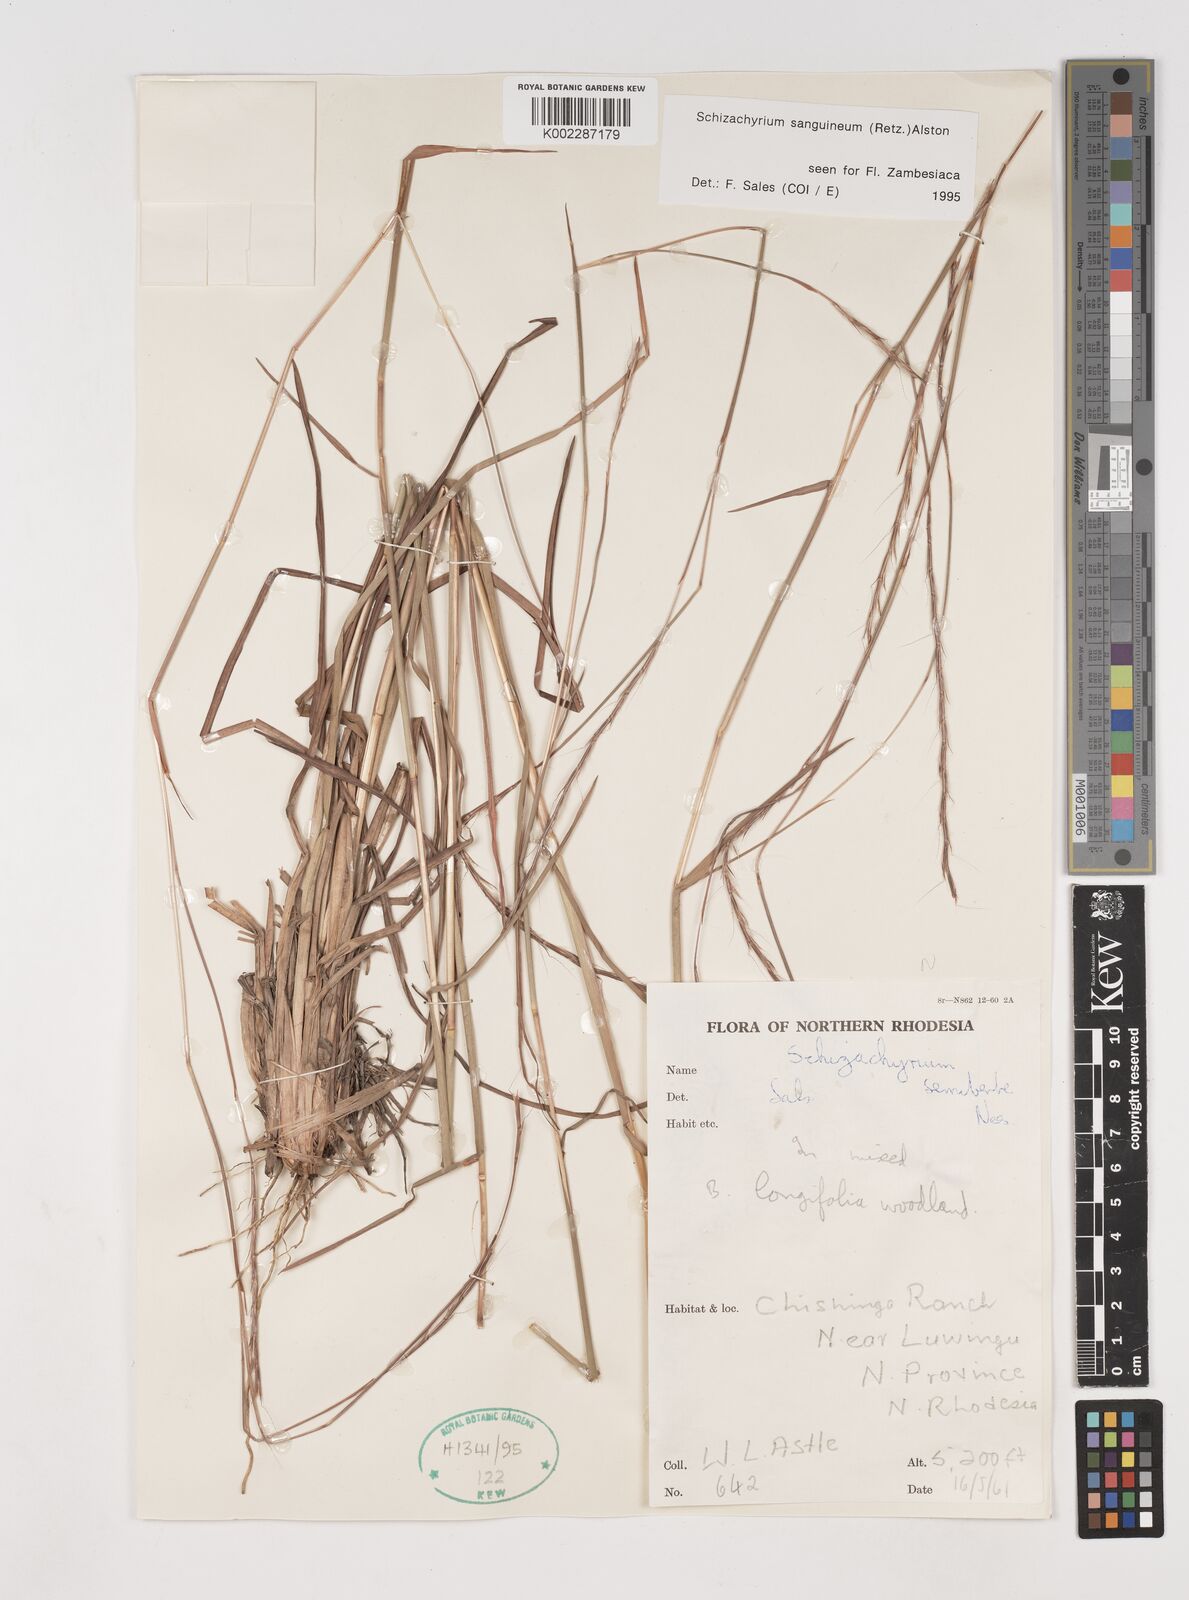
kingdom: Plantae
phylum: Tracheophyta
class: Liliopsida
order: Poales
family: Poaceae
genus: Schizachyrium
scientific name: Schizachyrium sanguineum
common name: Crimson bluestem
